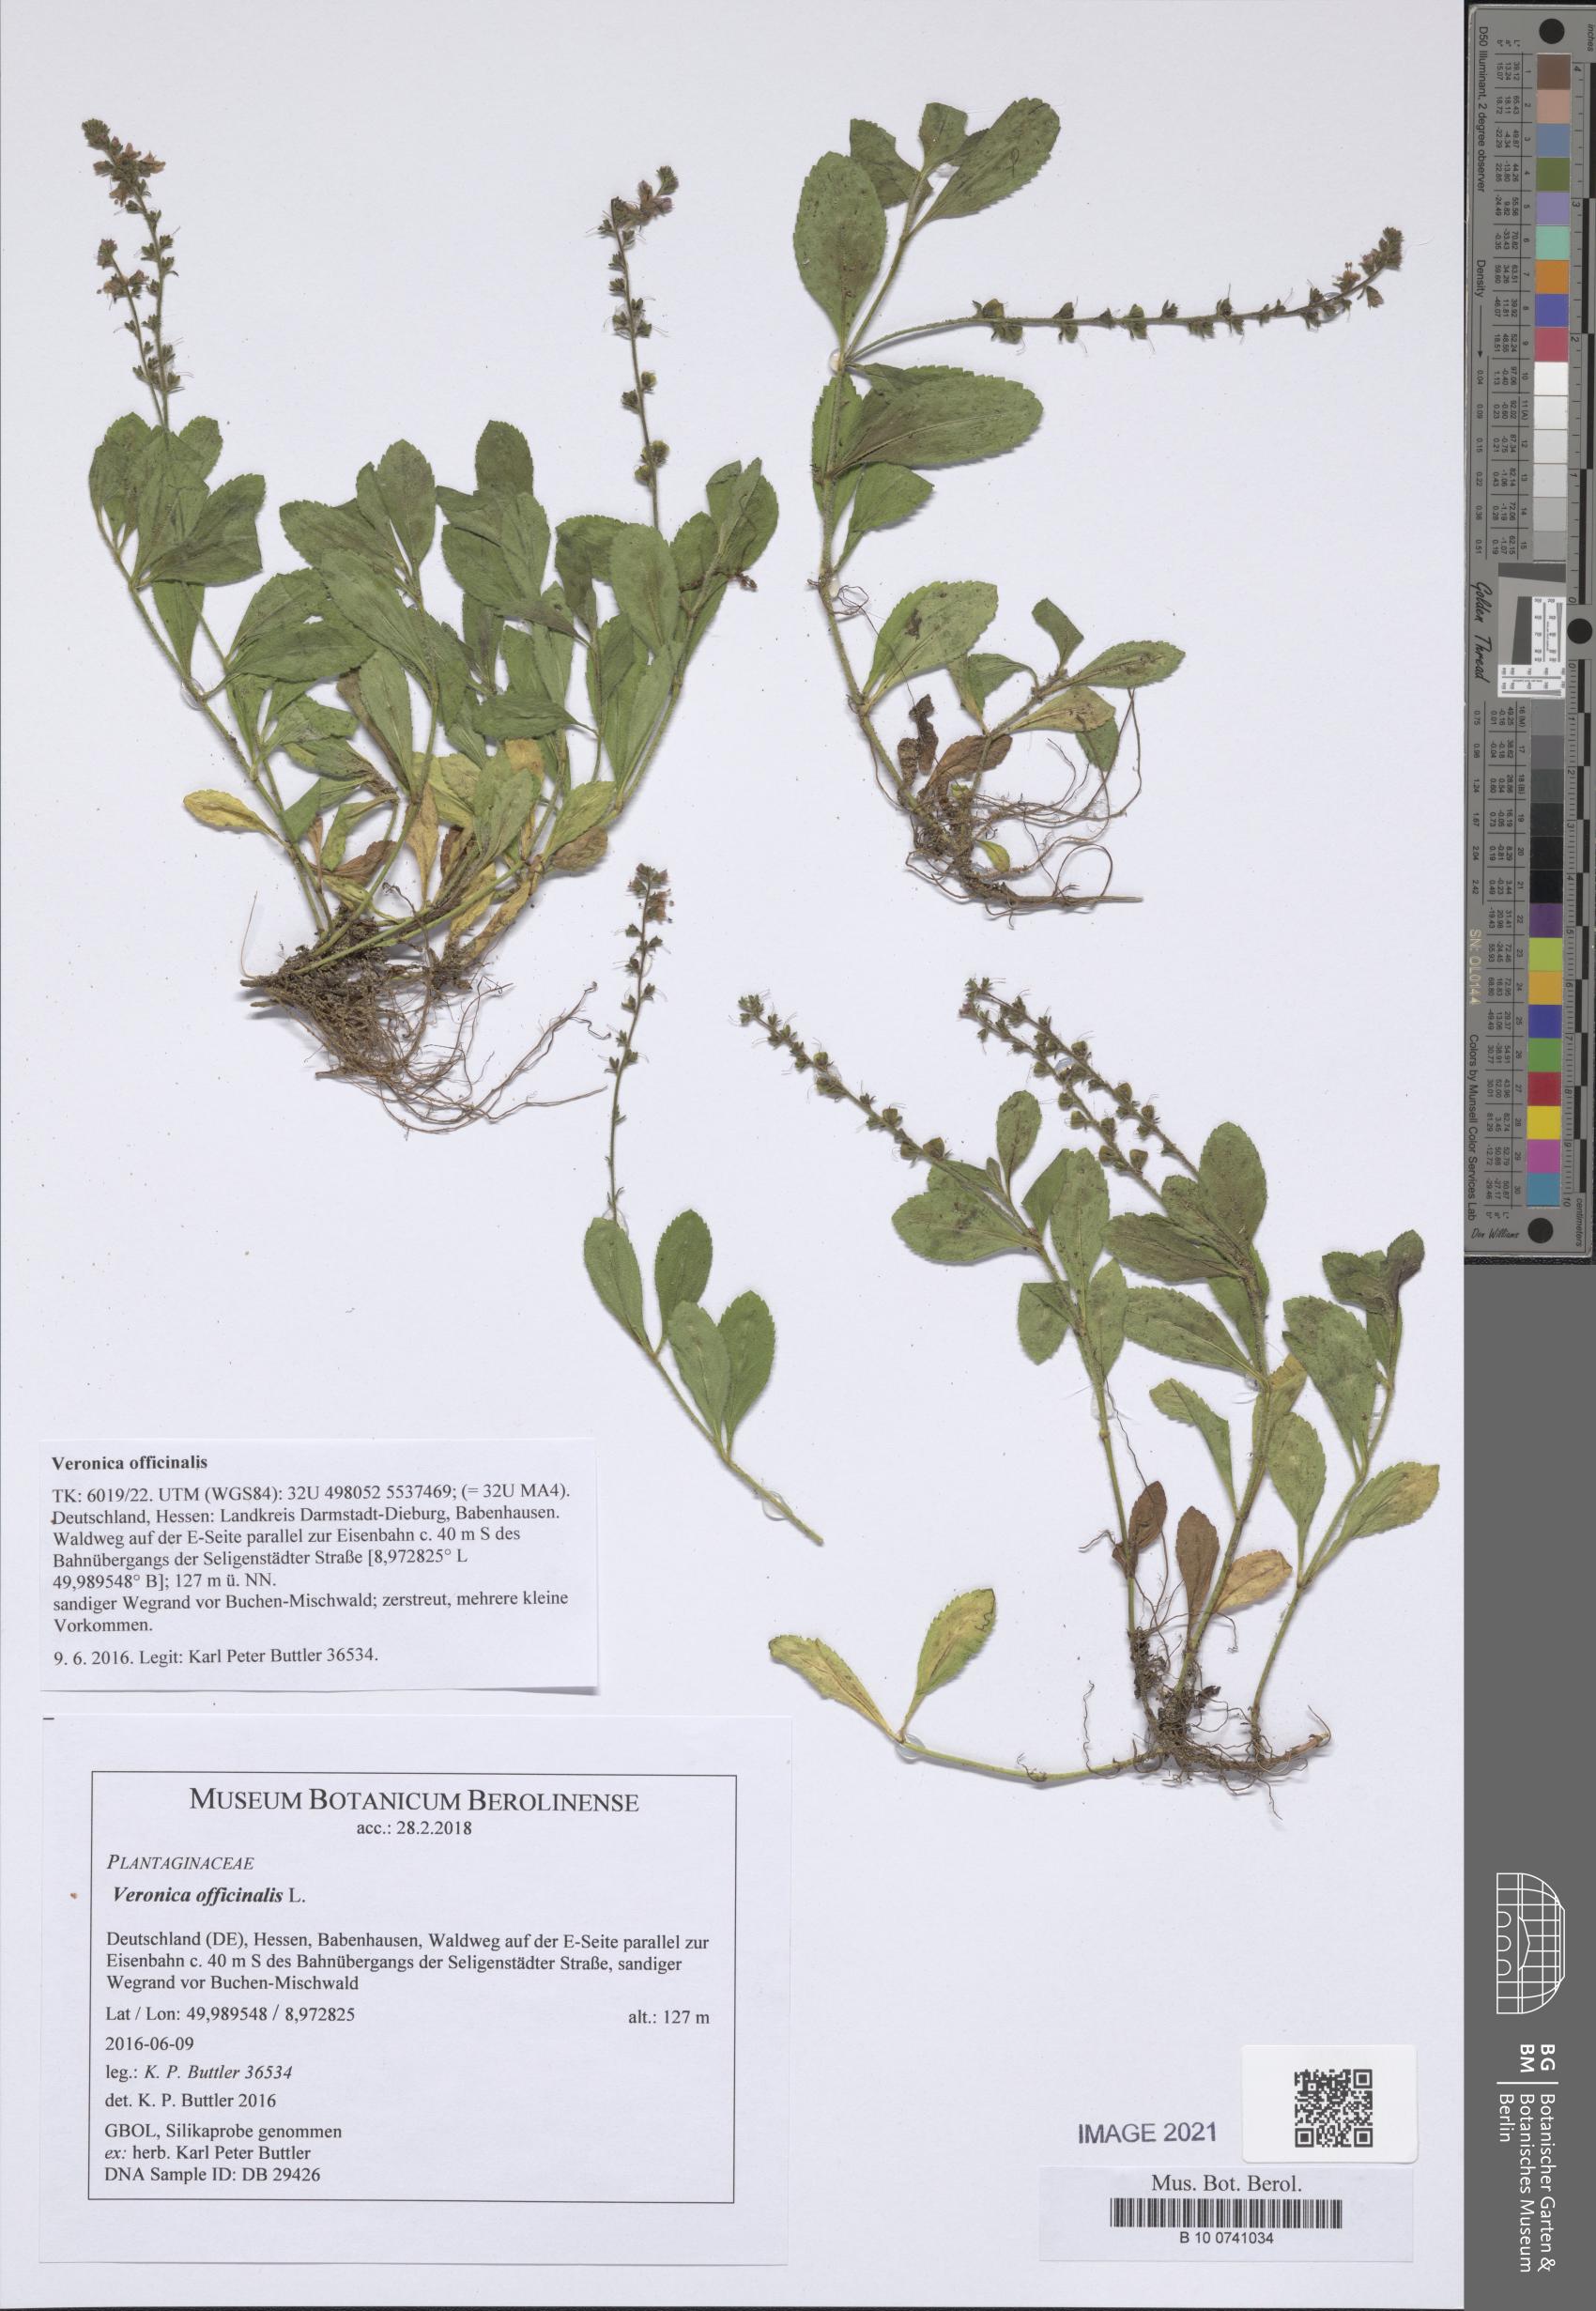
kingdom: Plantae
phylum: Tracheophyta
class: Magnoliopsida
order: Lamiales
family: Plantaginaceae
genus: Veronica
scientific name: Veronica officinalis
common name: Common speedwell
